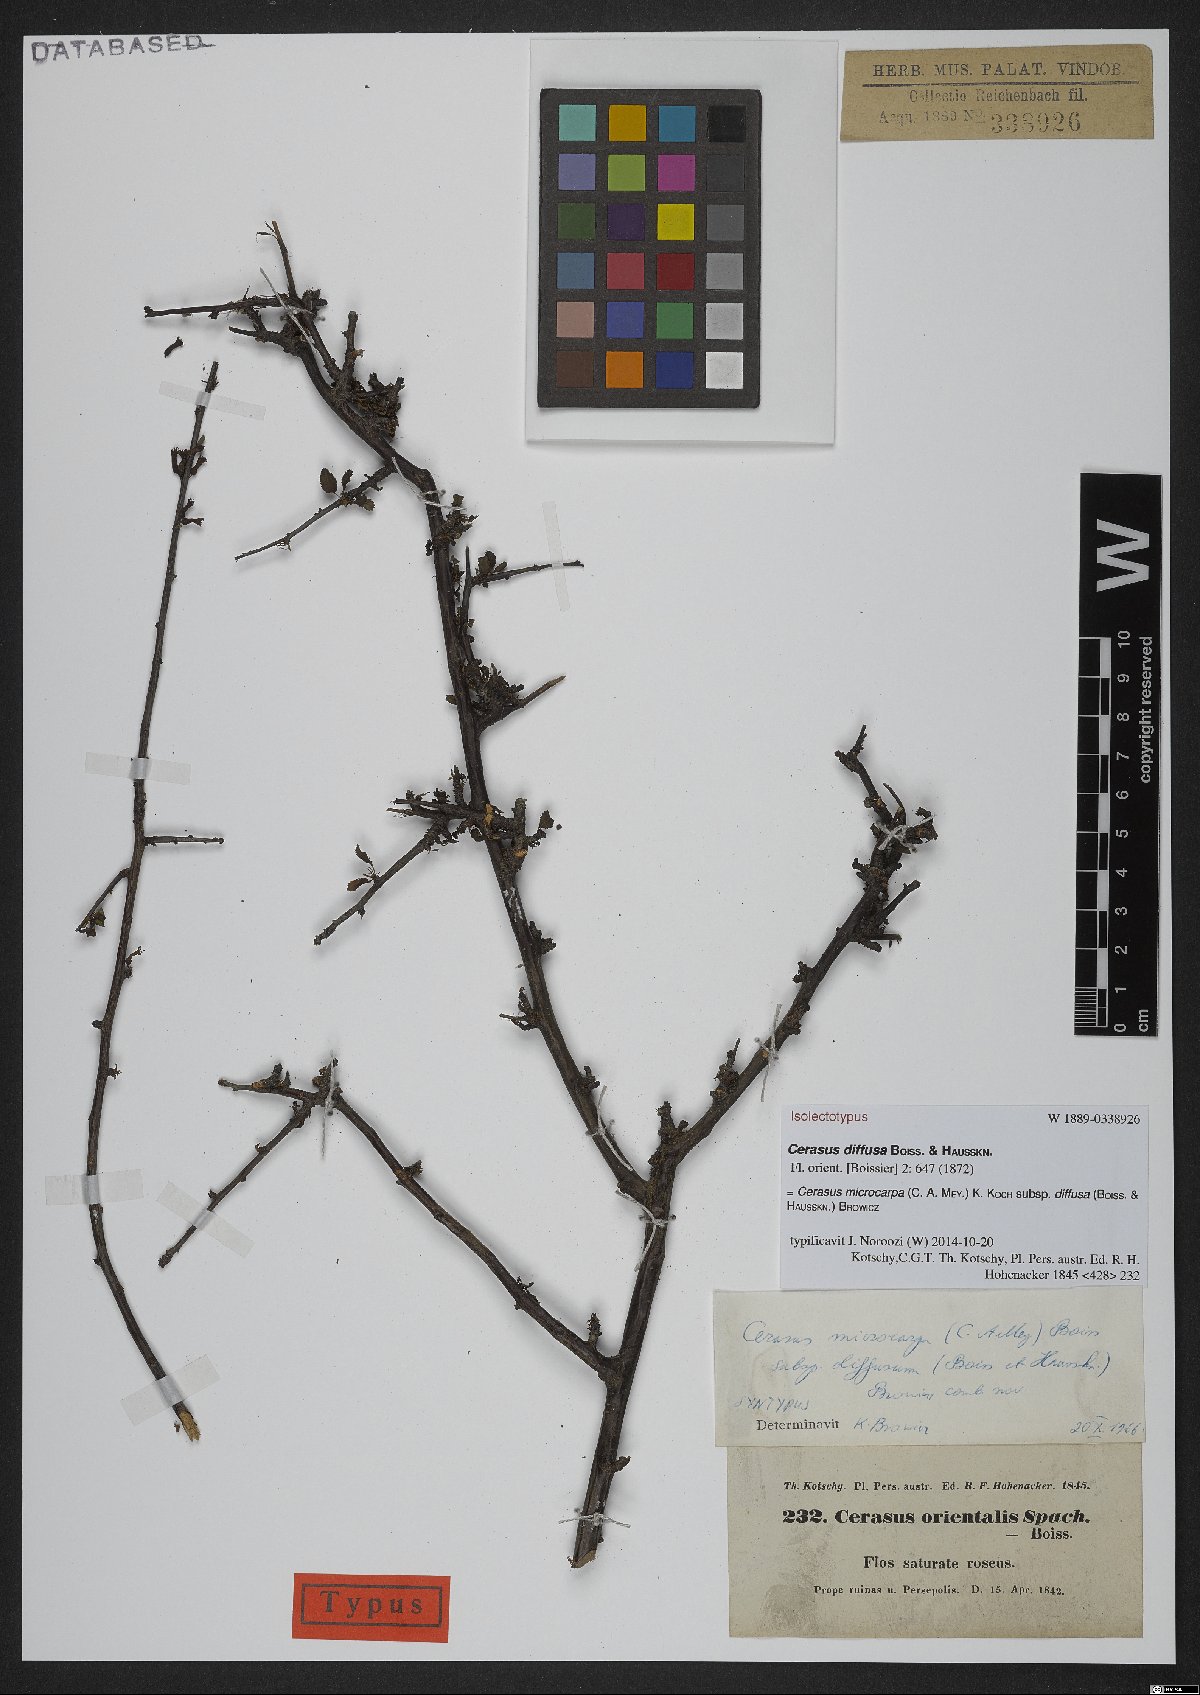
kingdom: Plantae
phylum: Tracheophyta
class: Magnoliopsida
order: Rosales
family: Rosaceae
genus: Prunus
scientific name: Prunus microcarpa
